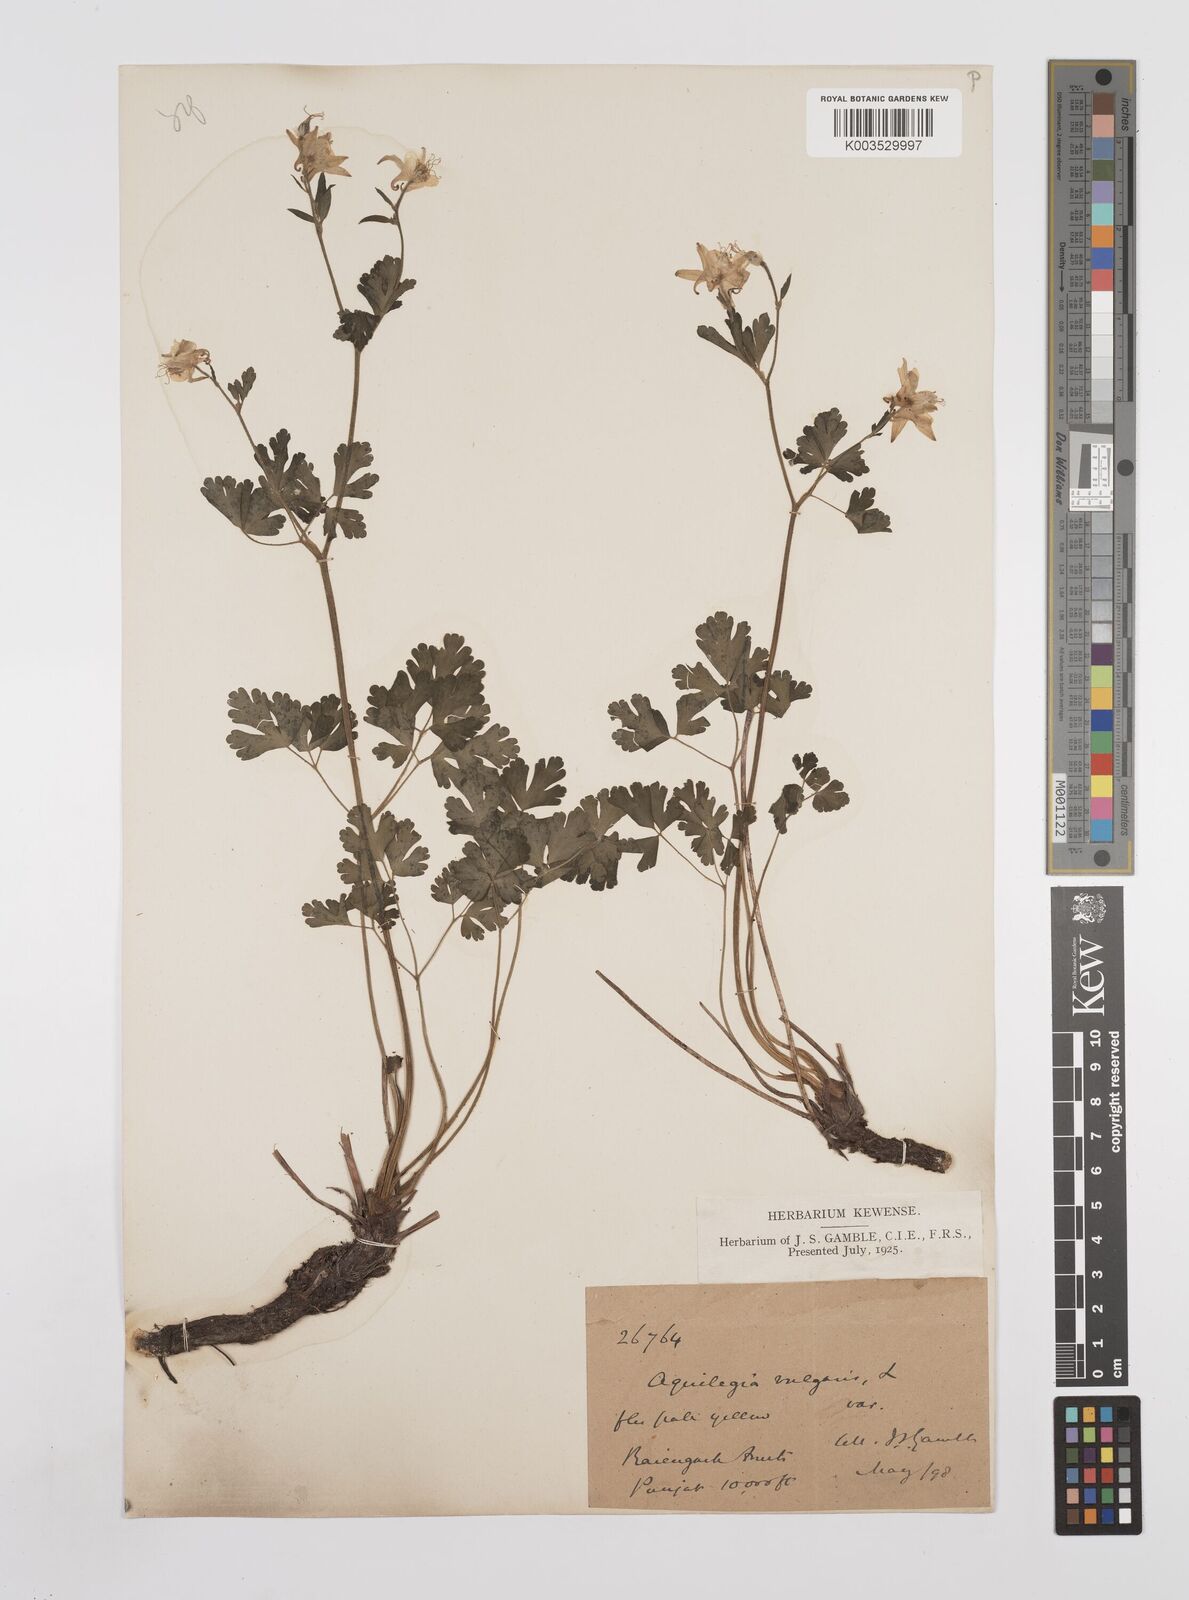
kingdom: Plantae
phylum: Tracheophyta
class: Magnoliopsida
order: Ranunculales
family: Ranunculaceae
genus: Aquilegia
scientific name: Aquilegia pubiflora
